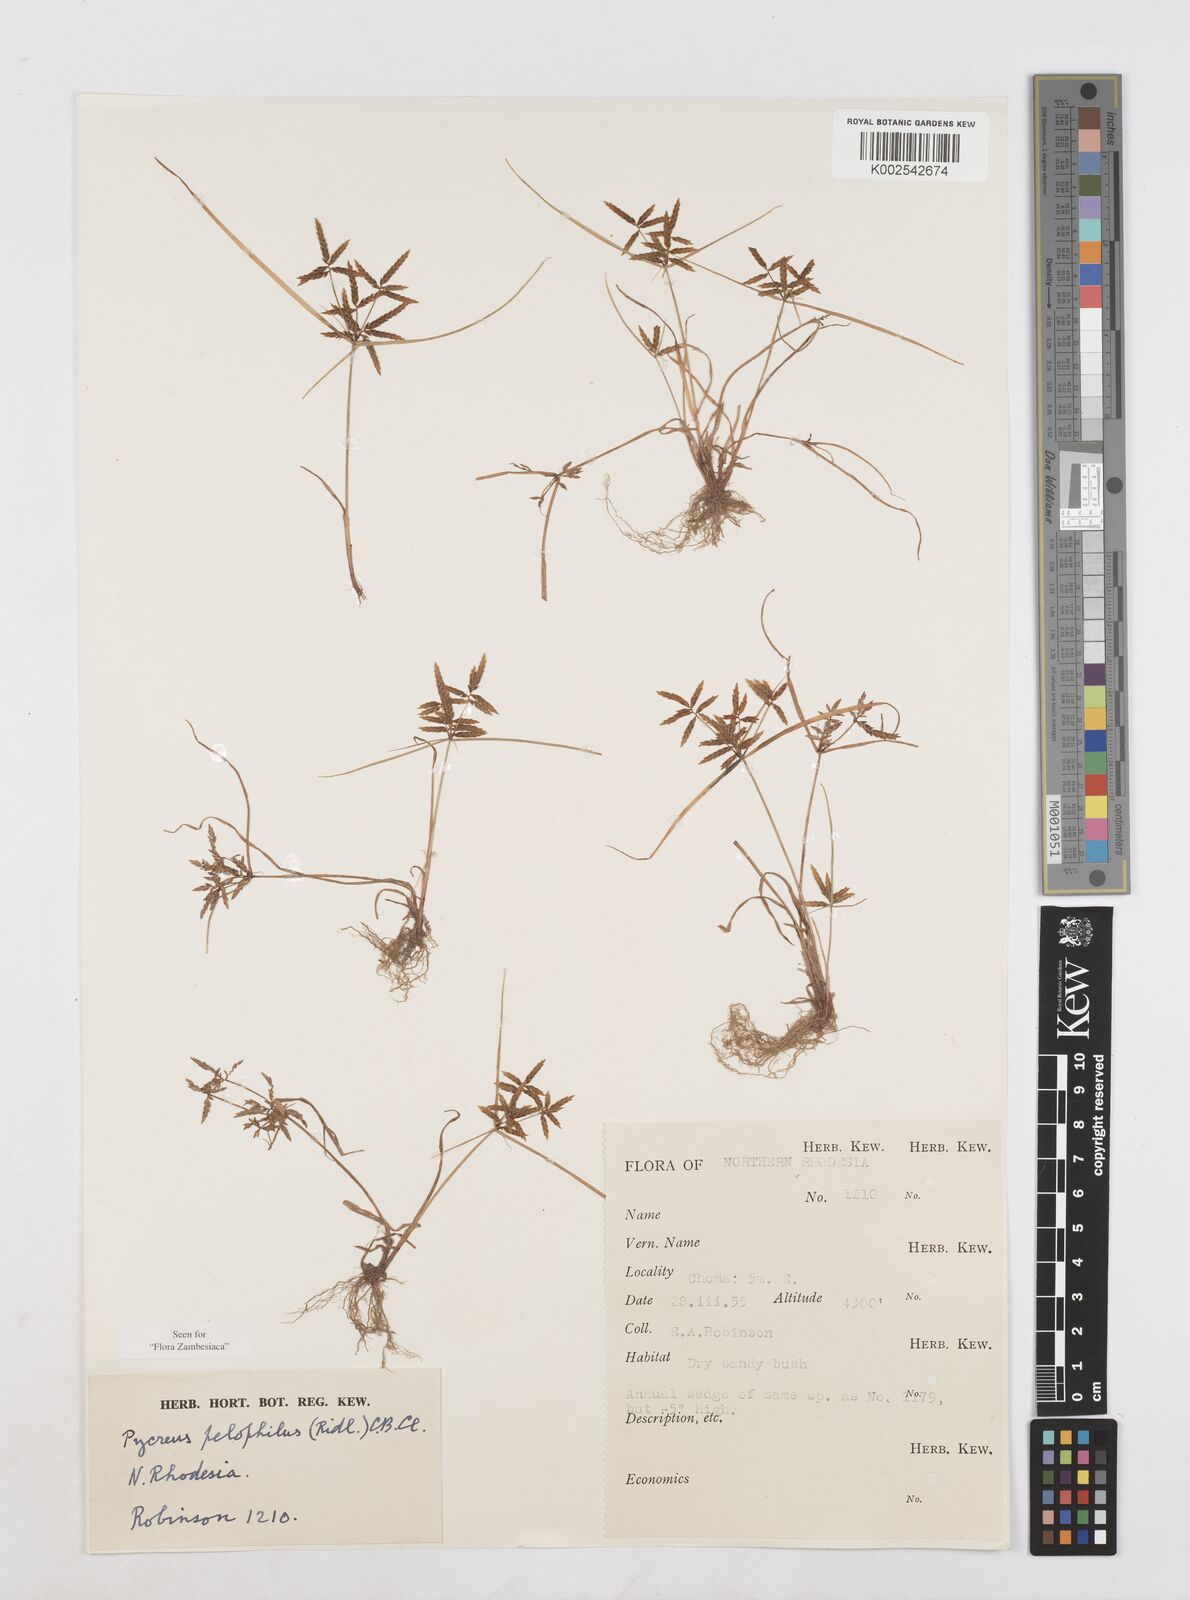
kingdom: Plantae
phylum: Tracheophyta
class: Liliopsida
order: Poales
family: Cyperaceae
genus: Cyperus
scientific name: Cyperus pelophilus
